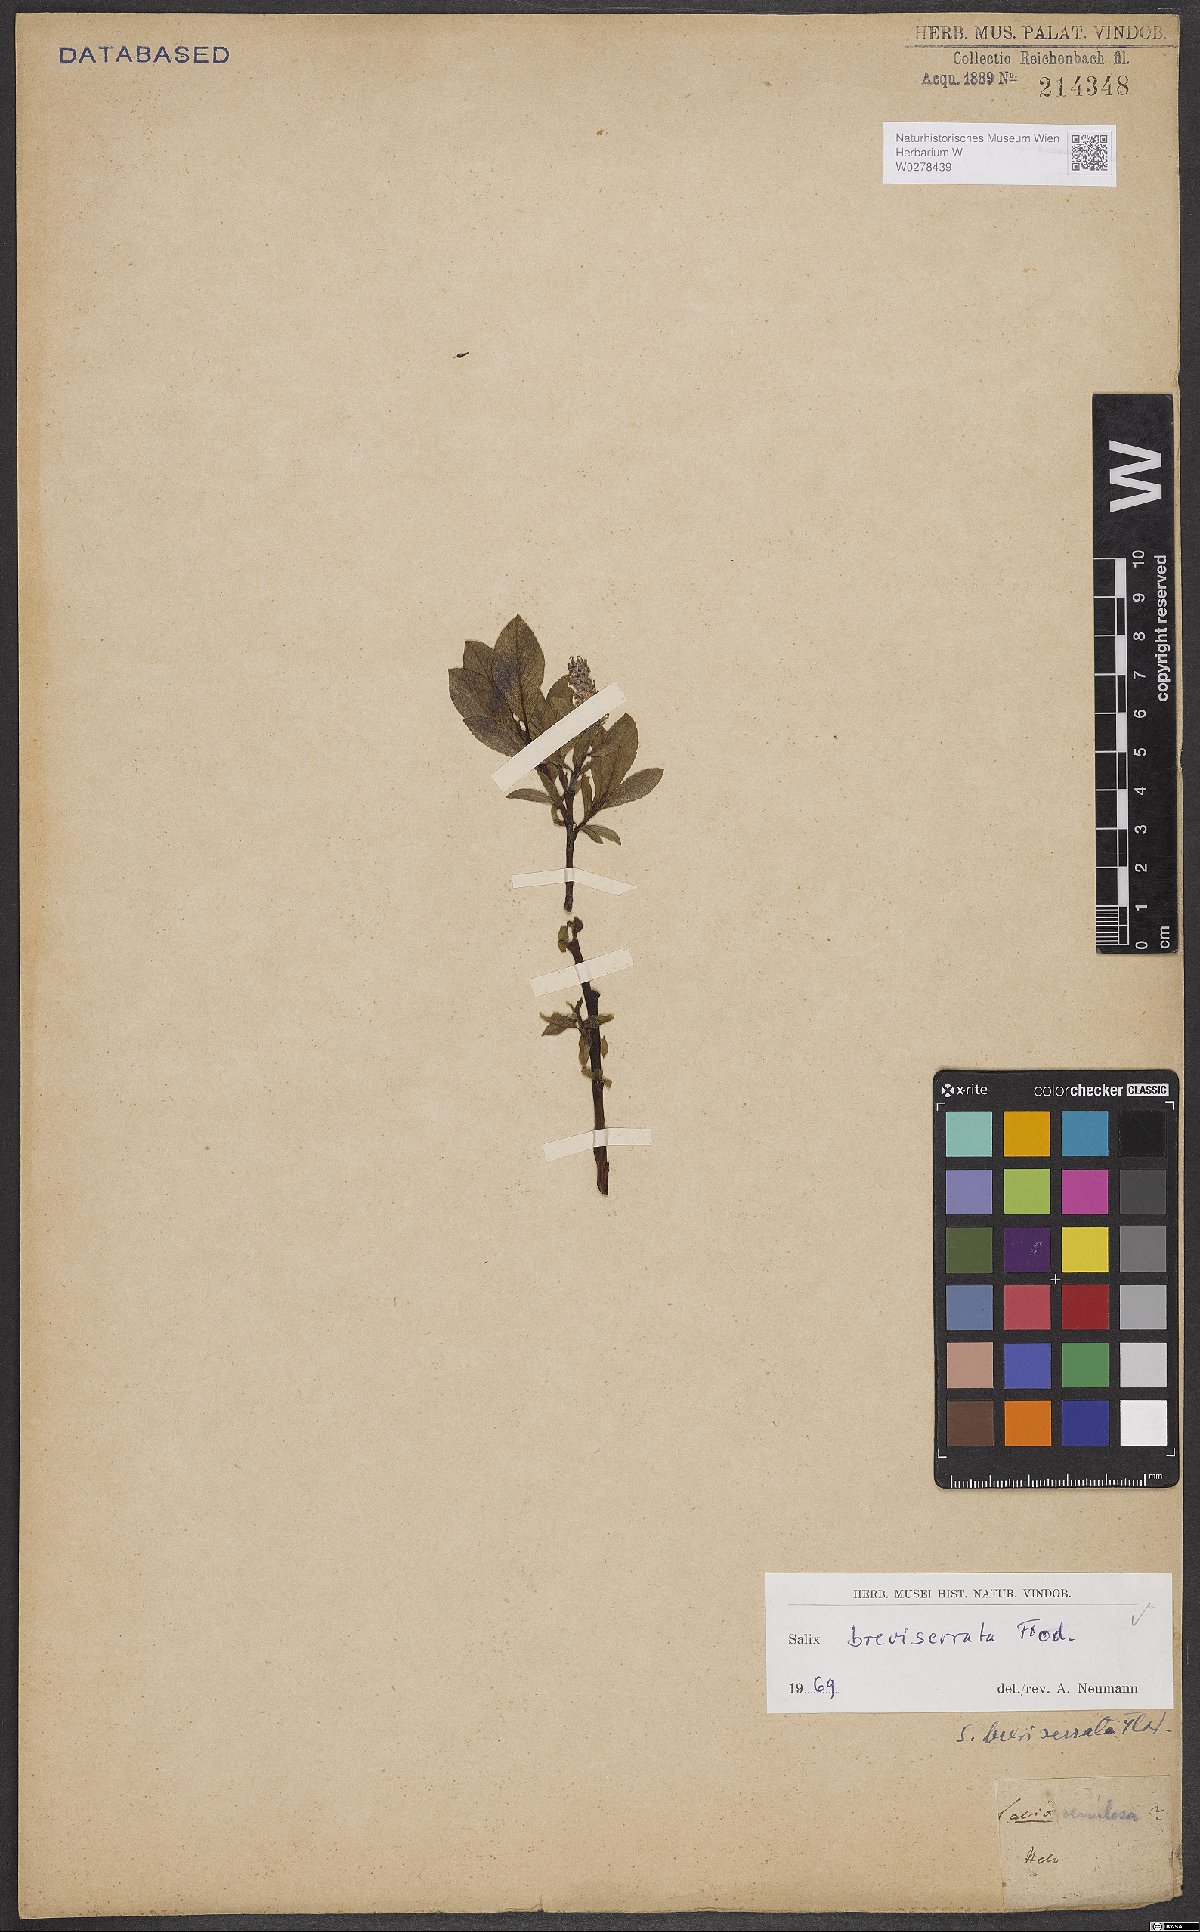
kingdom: Plantae
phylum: Tracheophyta
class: Magnoliopsida
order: Malpighiales
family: Salicaceae
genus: Salix
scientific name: Salix breviserrata
